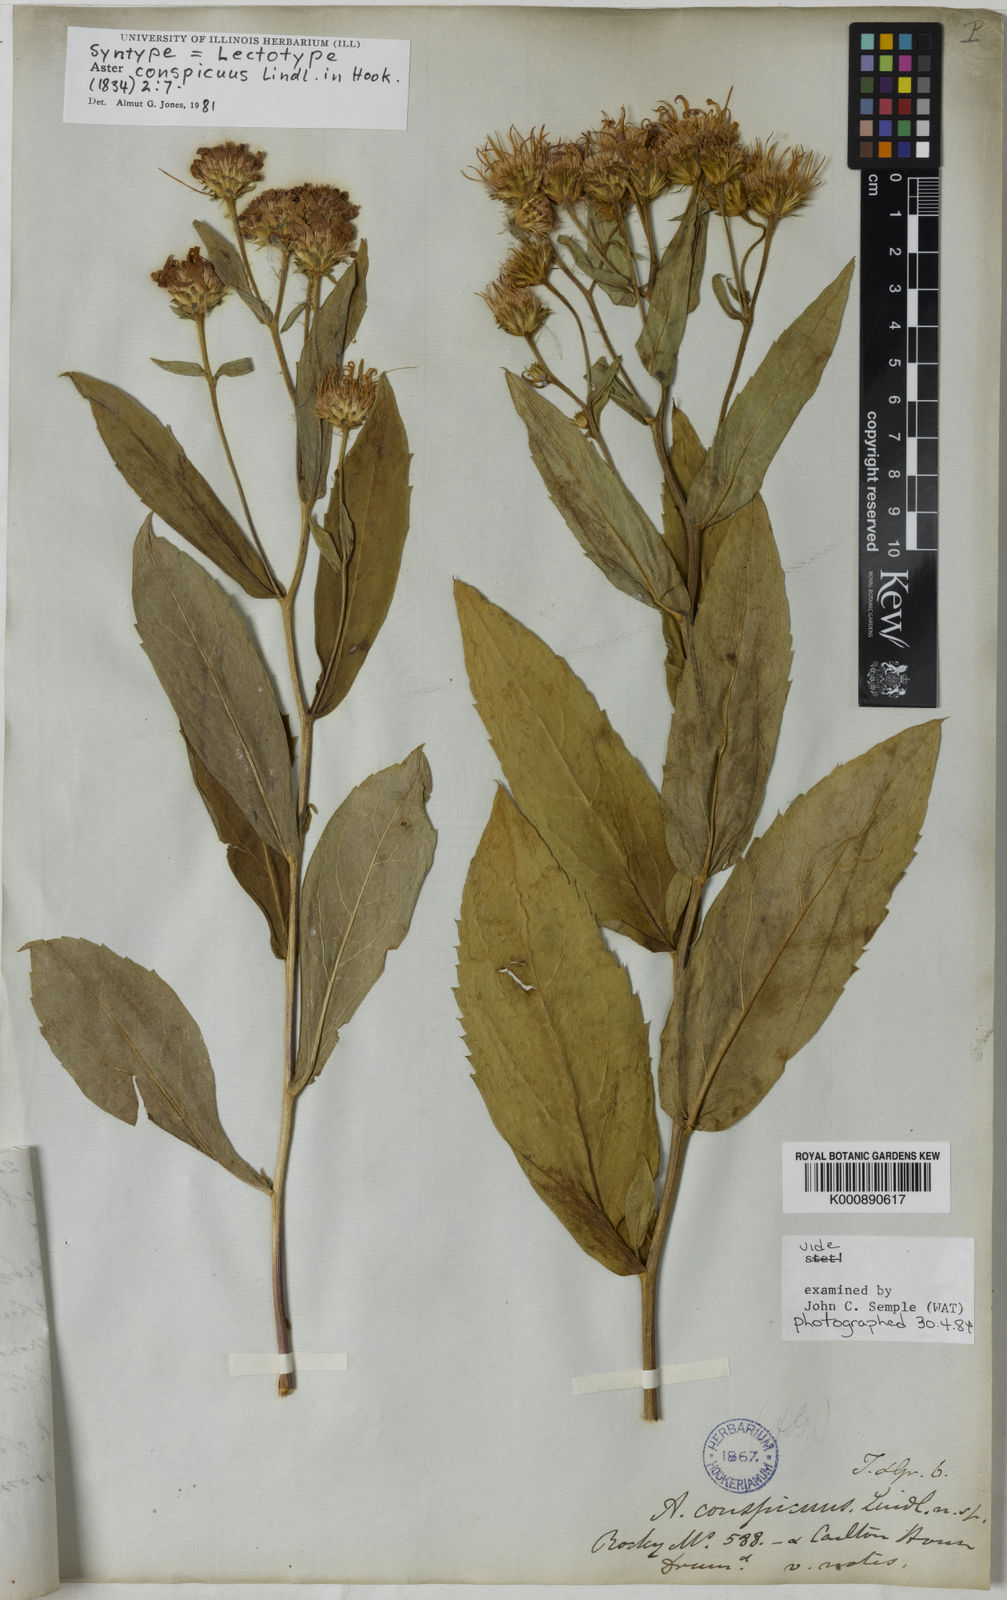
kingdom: Plantae
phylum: Tracheophyta
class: Magnoliopsida
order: Asterales
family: Asteraceae
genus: Eurybia
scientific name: Eurybia conspicua
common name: Showy aster
